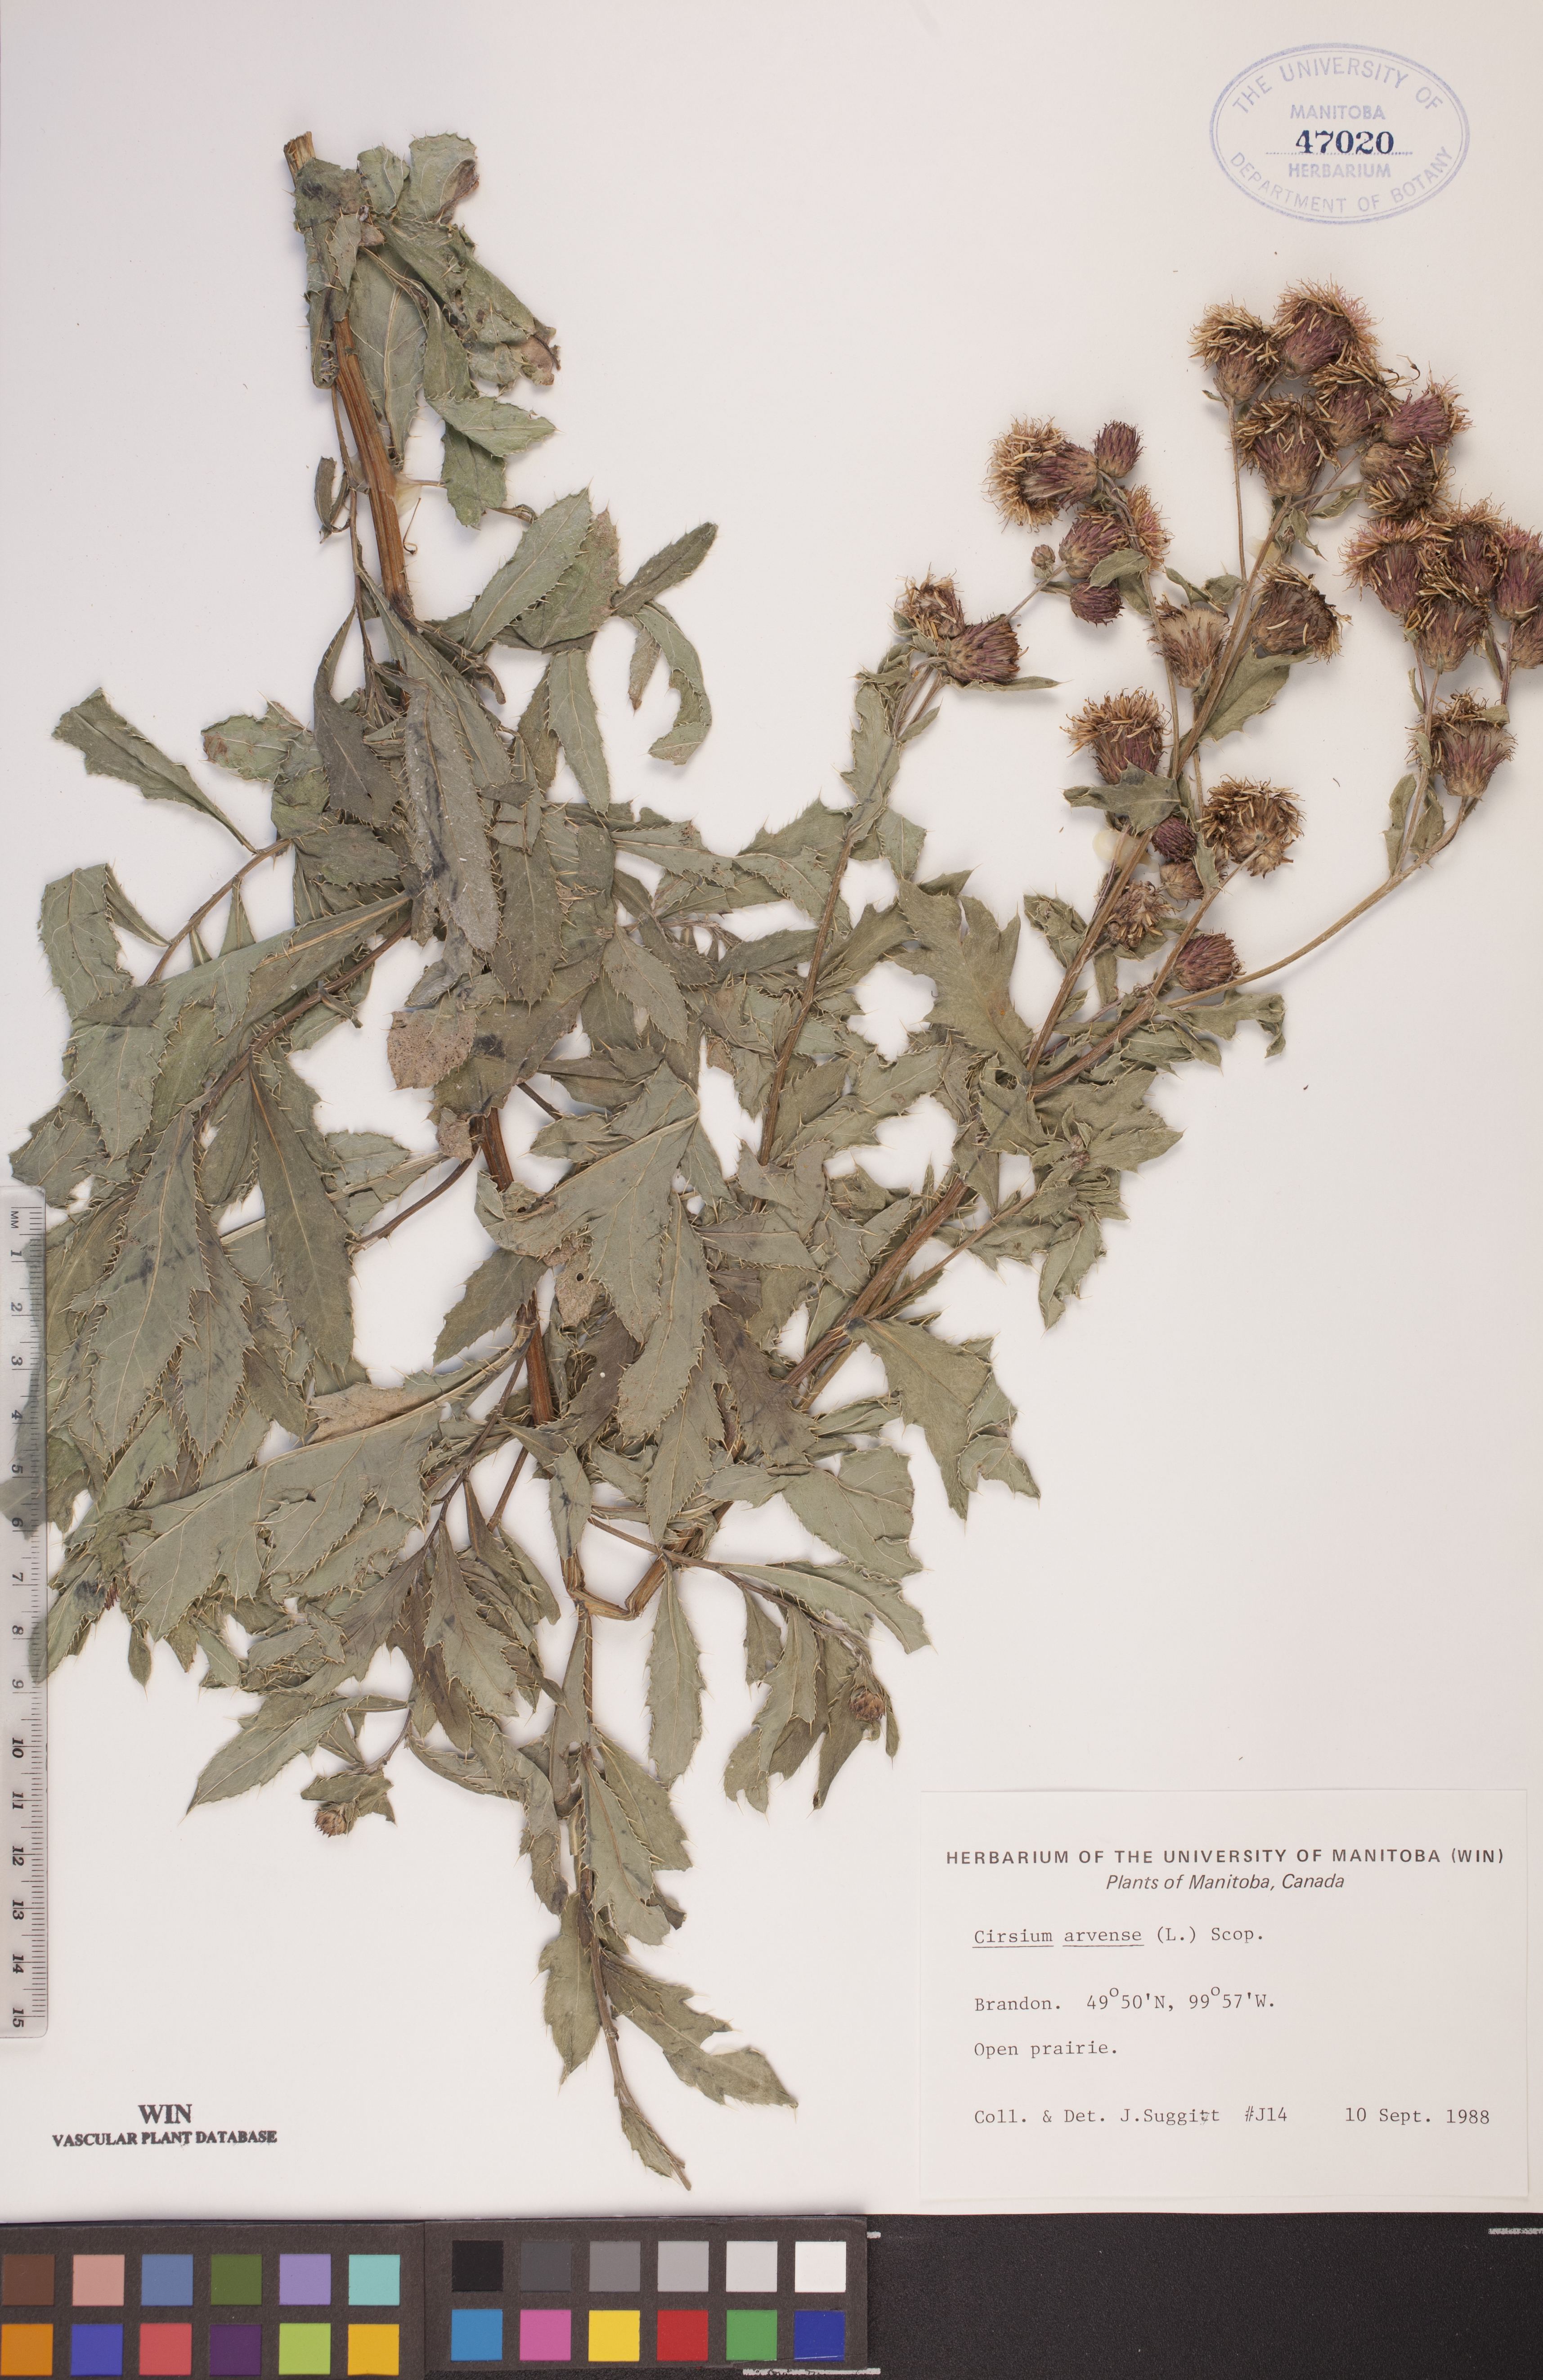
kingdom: Plantae
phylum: Tracheophyta
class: Magnoliopsida
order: Asterales
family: Asteraceae
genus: Cirsium
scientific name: Cirsium arvense
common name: Creeping thistle
